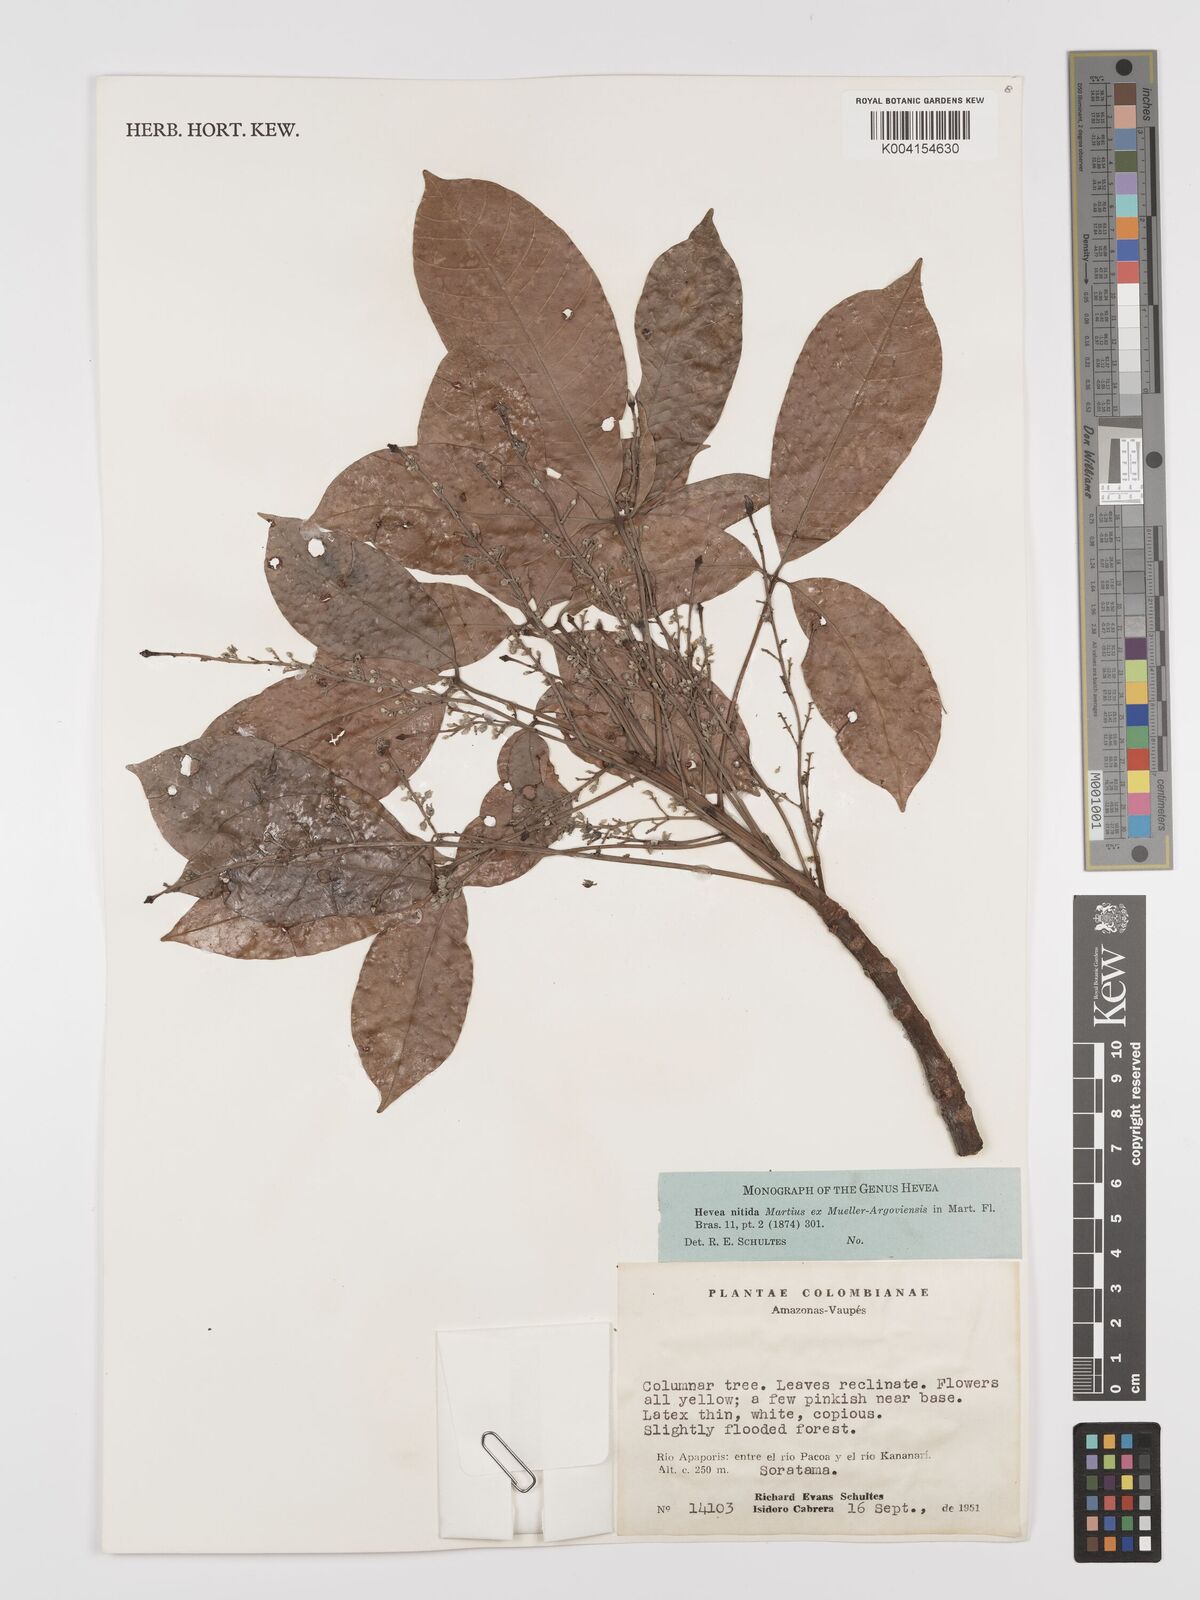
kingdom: Plantae
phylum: Tracheophyta
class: Magnoliopsida
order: Malpighiales
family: Euphorbiaceae
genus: Hevea
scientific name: Hevea nitida
